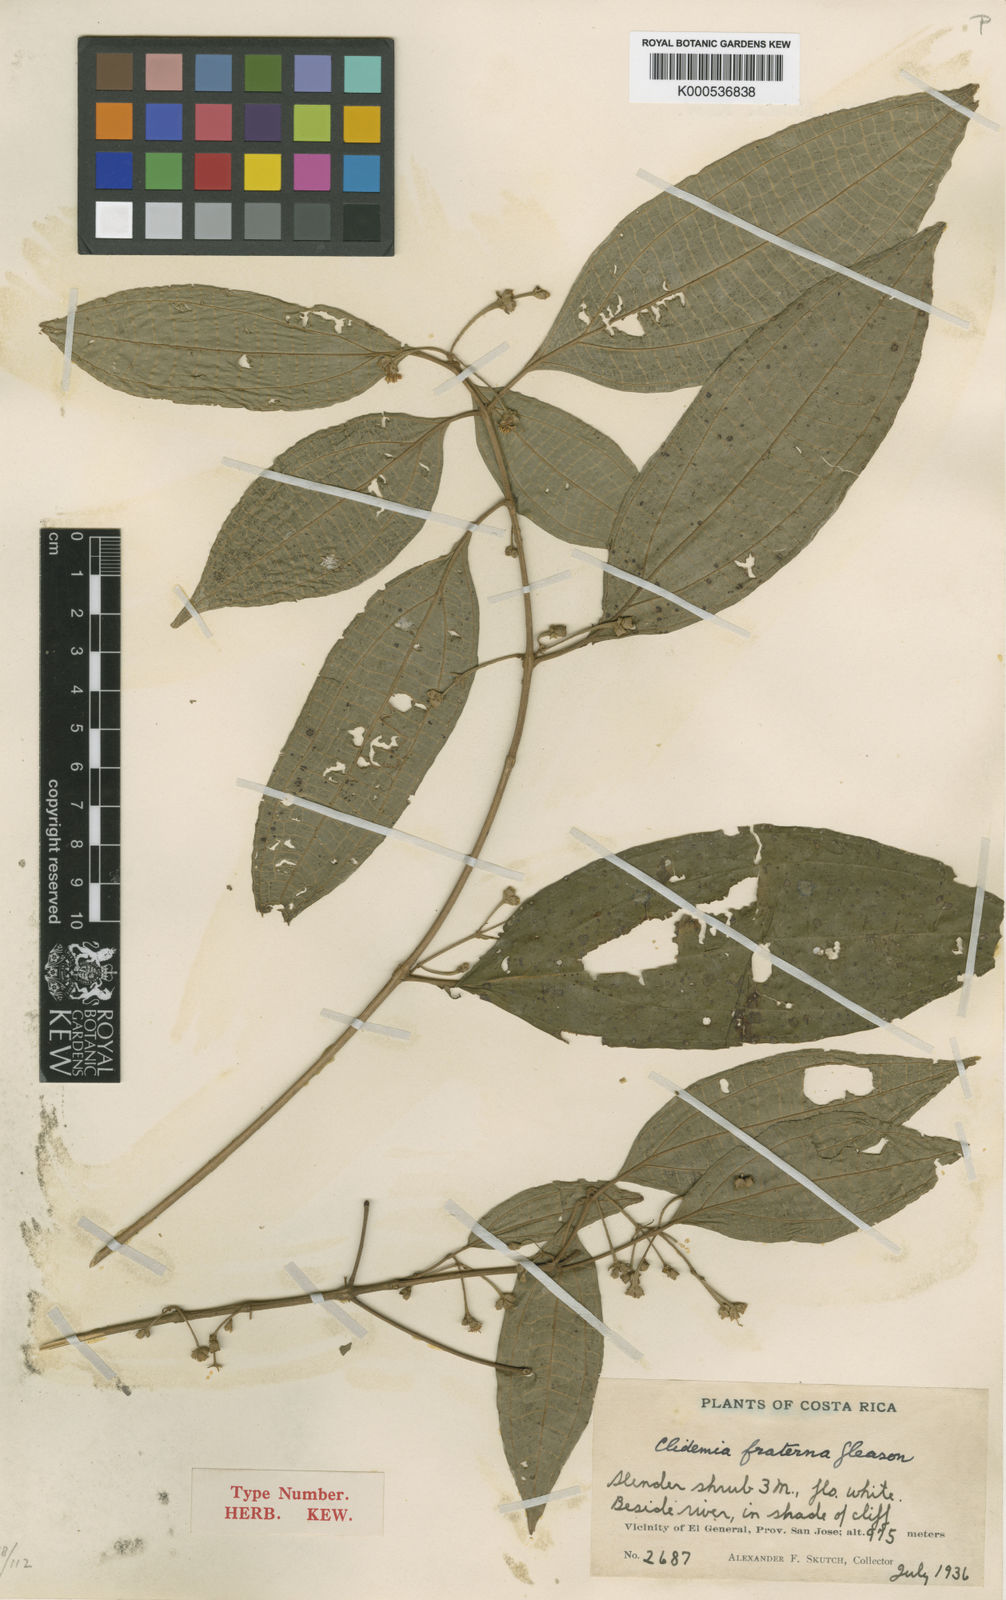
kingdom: Plantae
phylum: Tracheophyta
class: Magnoliopsida
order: Myrtales
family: Melastomataceae
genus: Miconia
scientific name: Miconia fraterna
